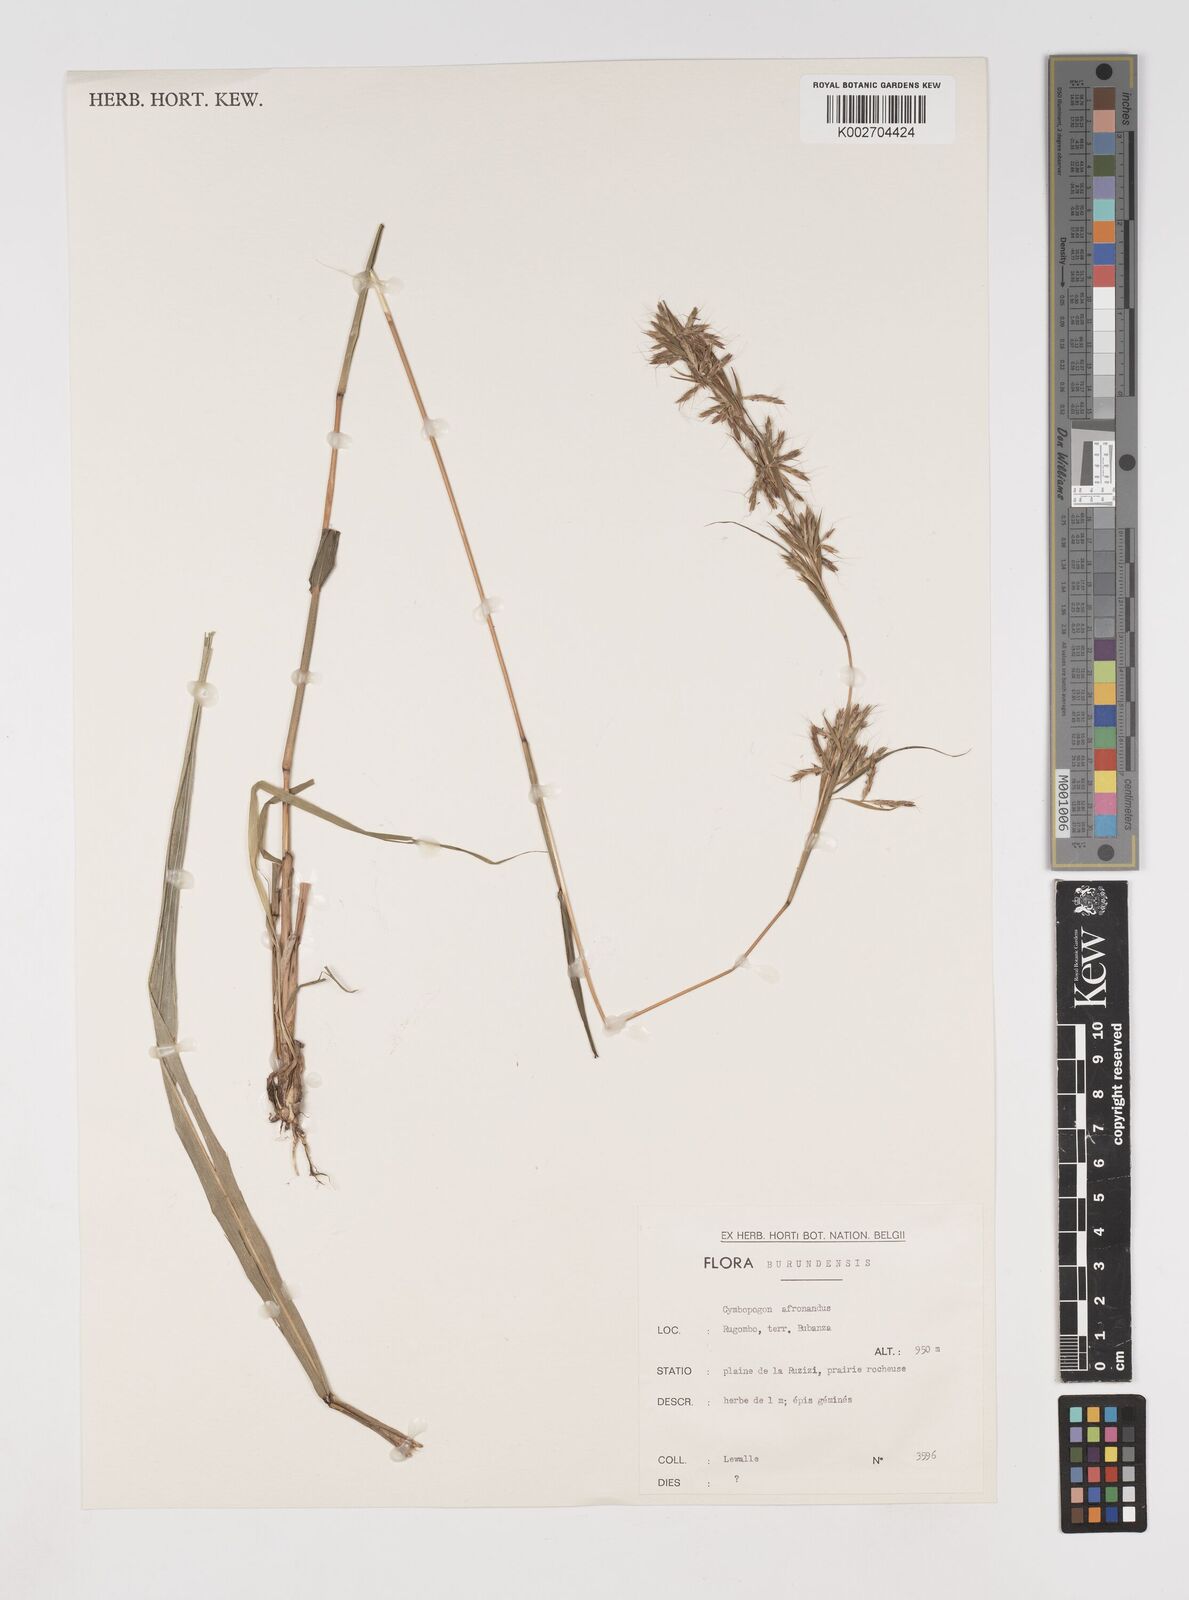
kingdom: Plantae
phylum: Tracheophyta
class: Liliopsida
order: Poales
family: Poaceae
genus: Cymbopogon
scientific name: Cymbopogon giganteus
